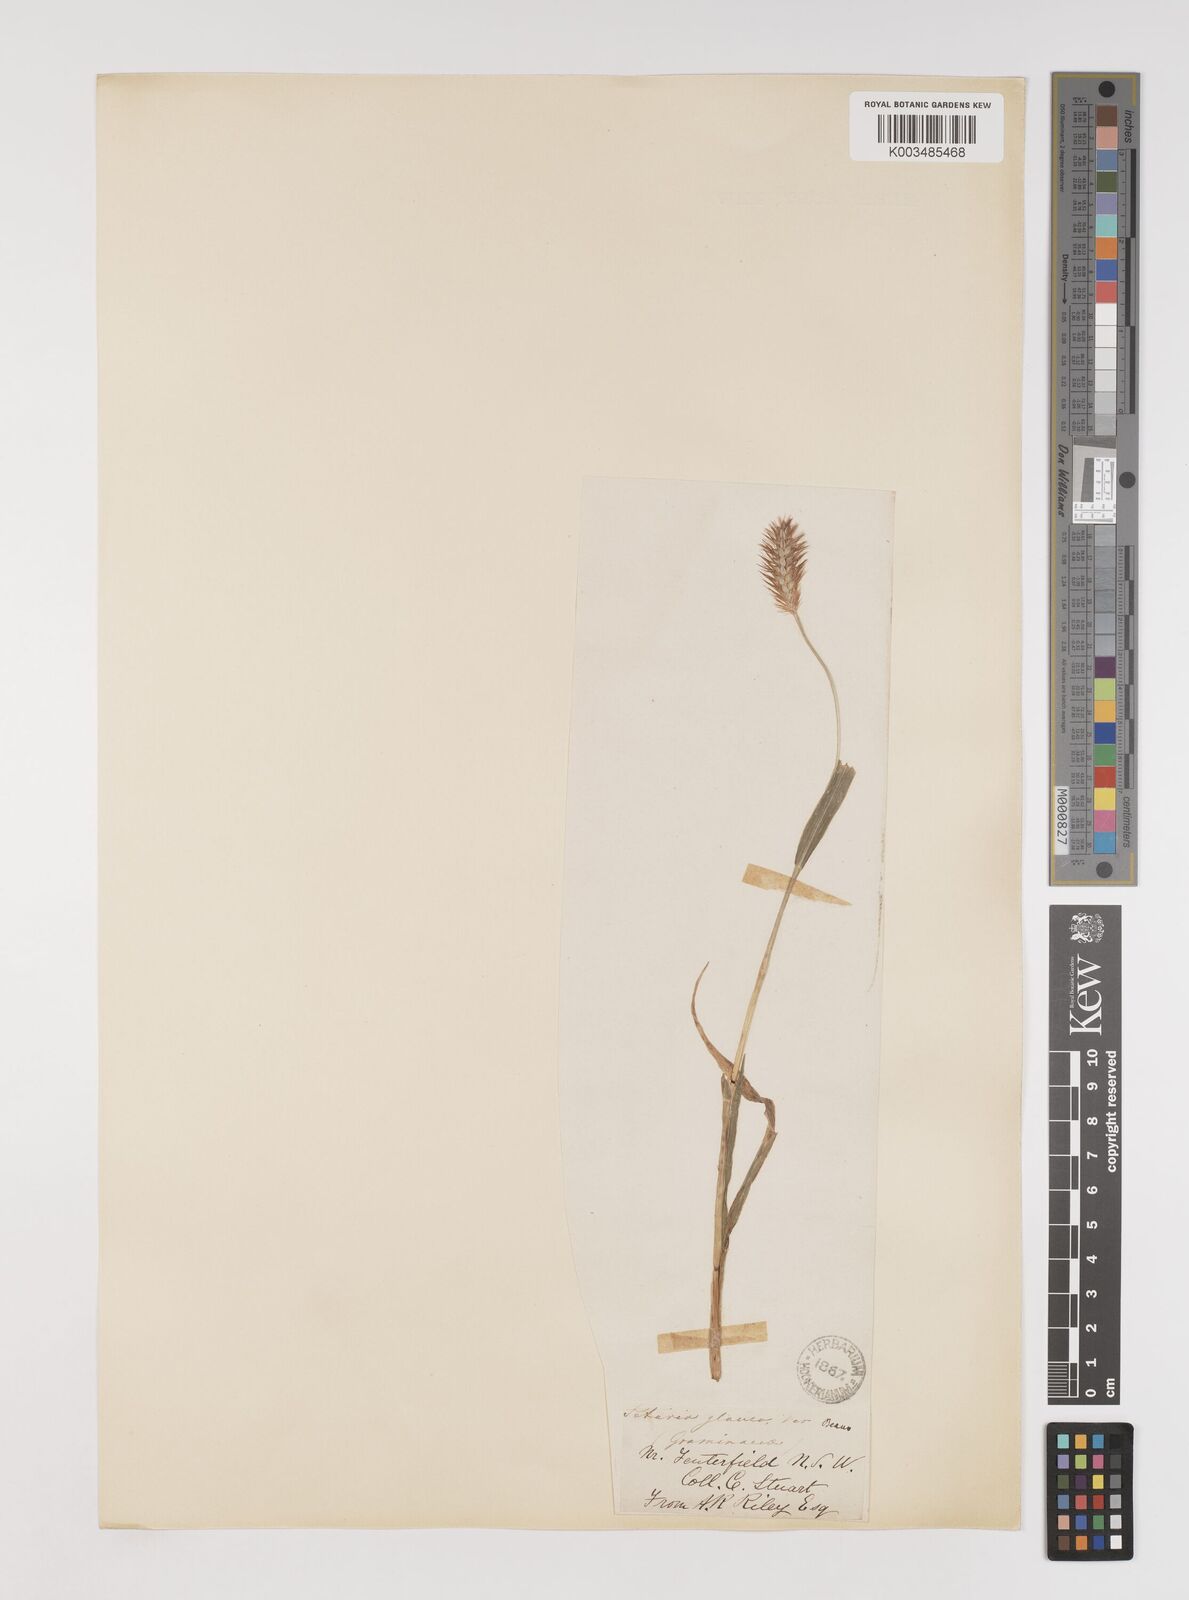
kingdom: Plantae
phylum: Tracheophyta
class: Liliopsida
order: Poales
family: Poaceae
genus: Setaria
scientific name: Setaria pumila
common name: Yellow bristle-grass
